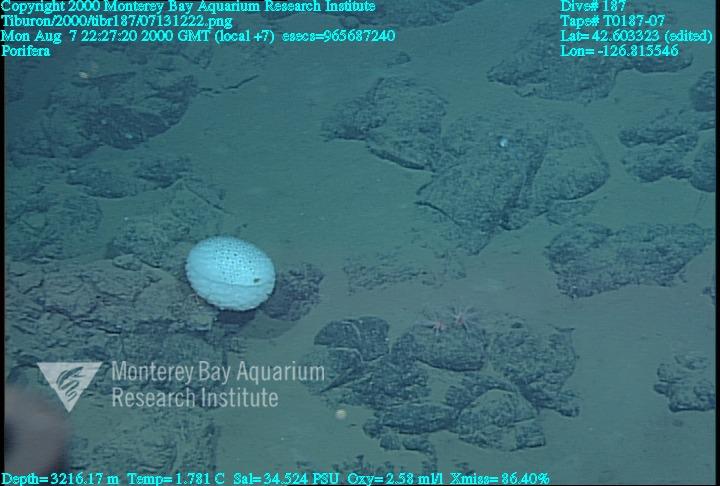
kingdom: Animalia
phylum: Porifera
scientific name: Porifera
